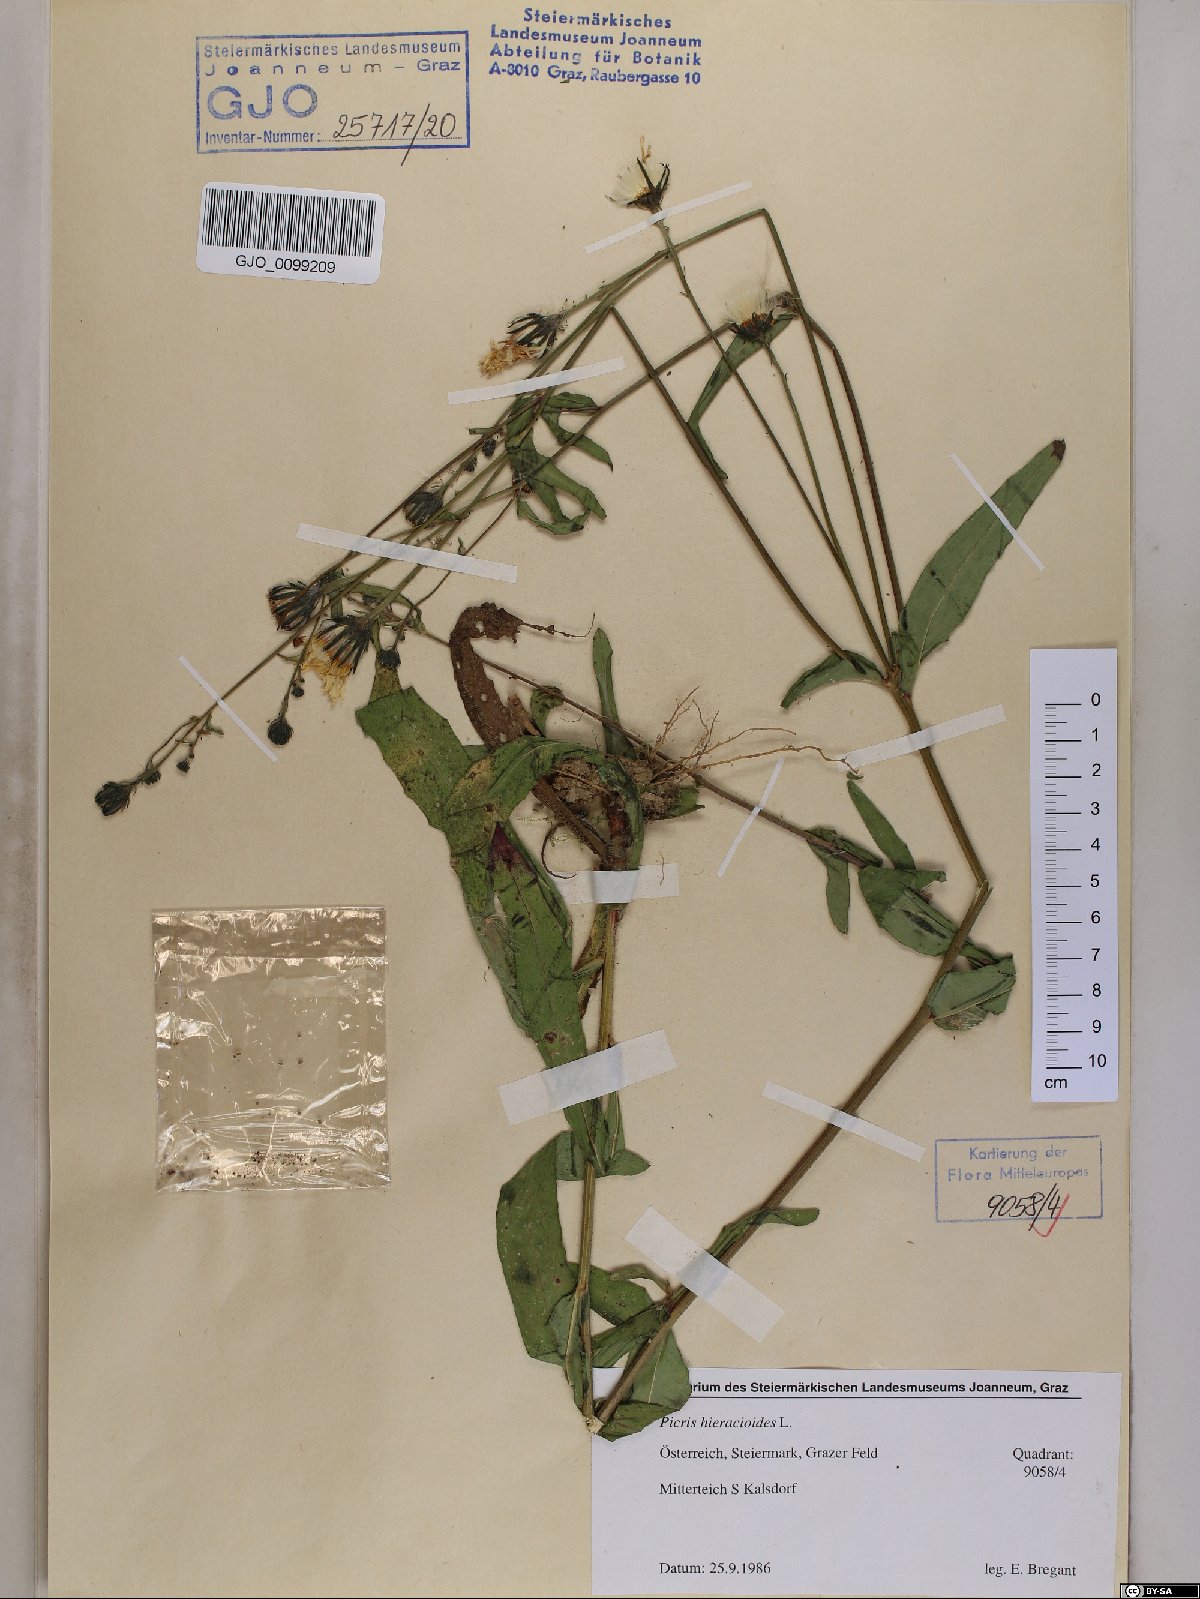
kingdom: Plantae
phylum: Tracheophyta
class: Magnoliopsida
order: Asterales
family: Asteraceae
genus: Picris
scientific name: Picris hieracioides
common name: Hawkweed oxtongue
